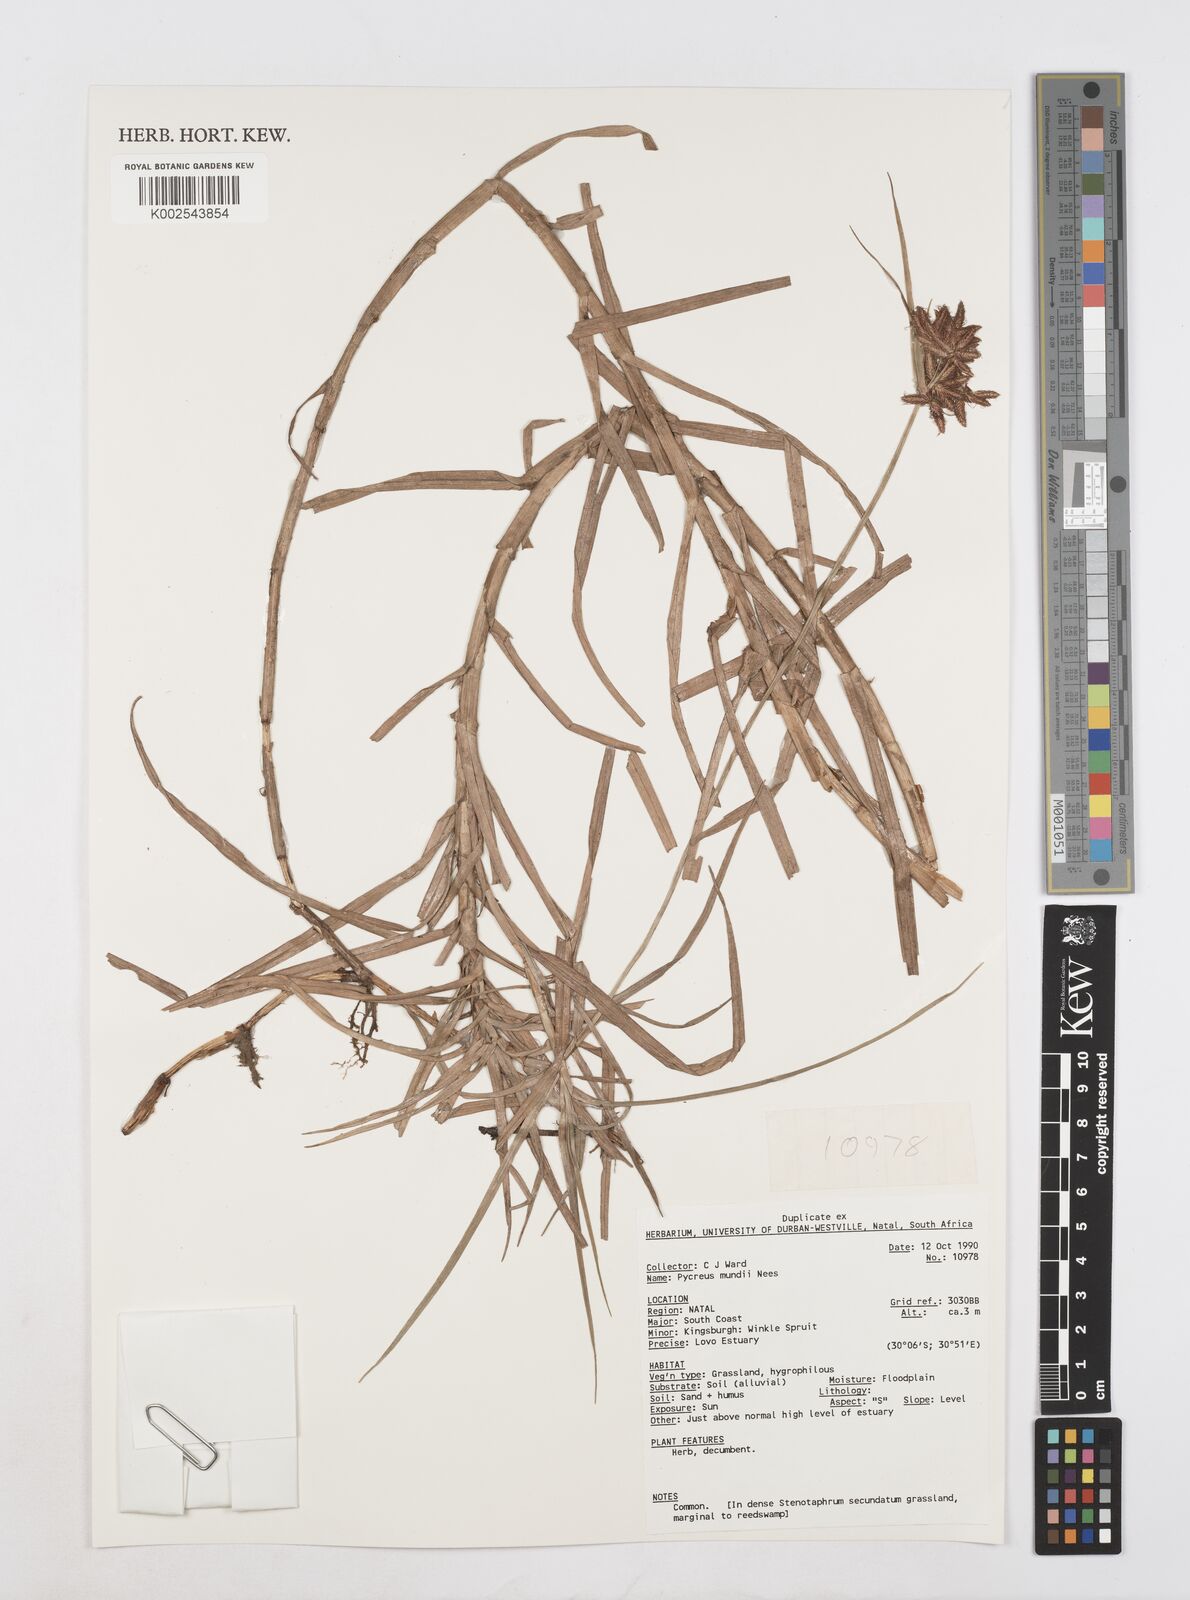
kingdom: Plantae
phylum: Tracheophyta
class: Liliopsida
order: Poales
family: Cyperaceae
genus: Cyperus
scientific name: Cyperus mundii
